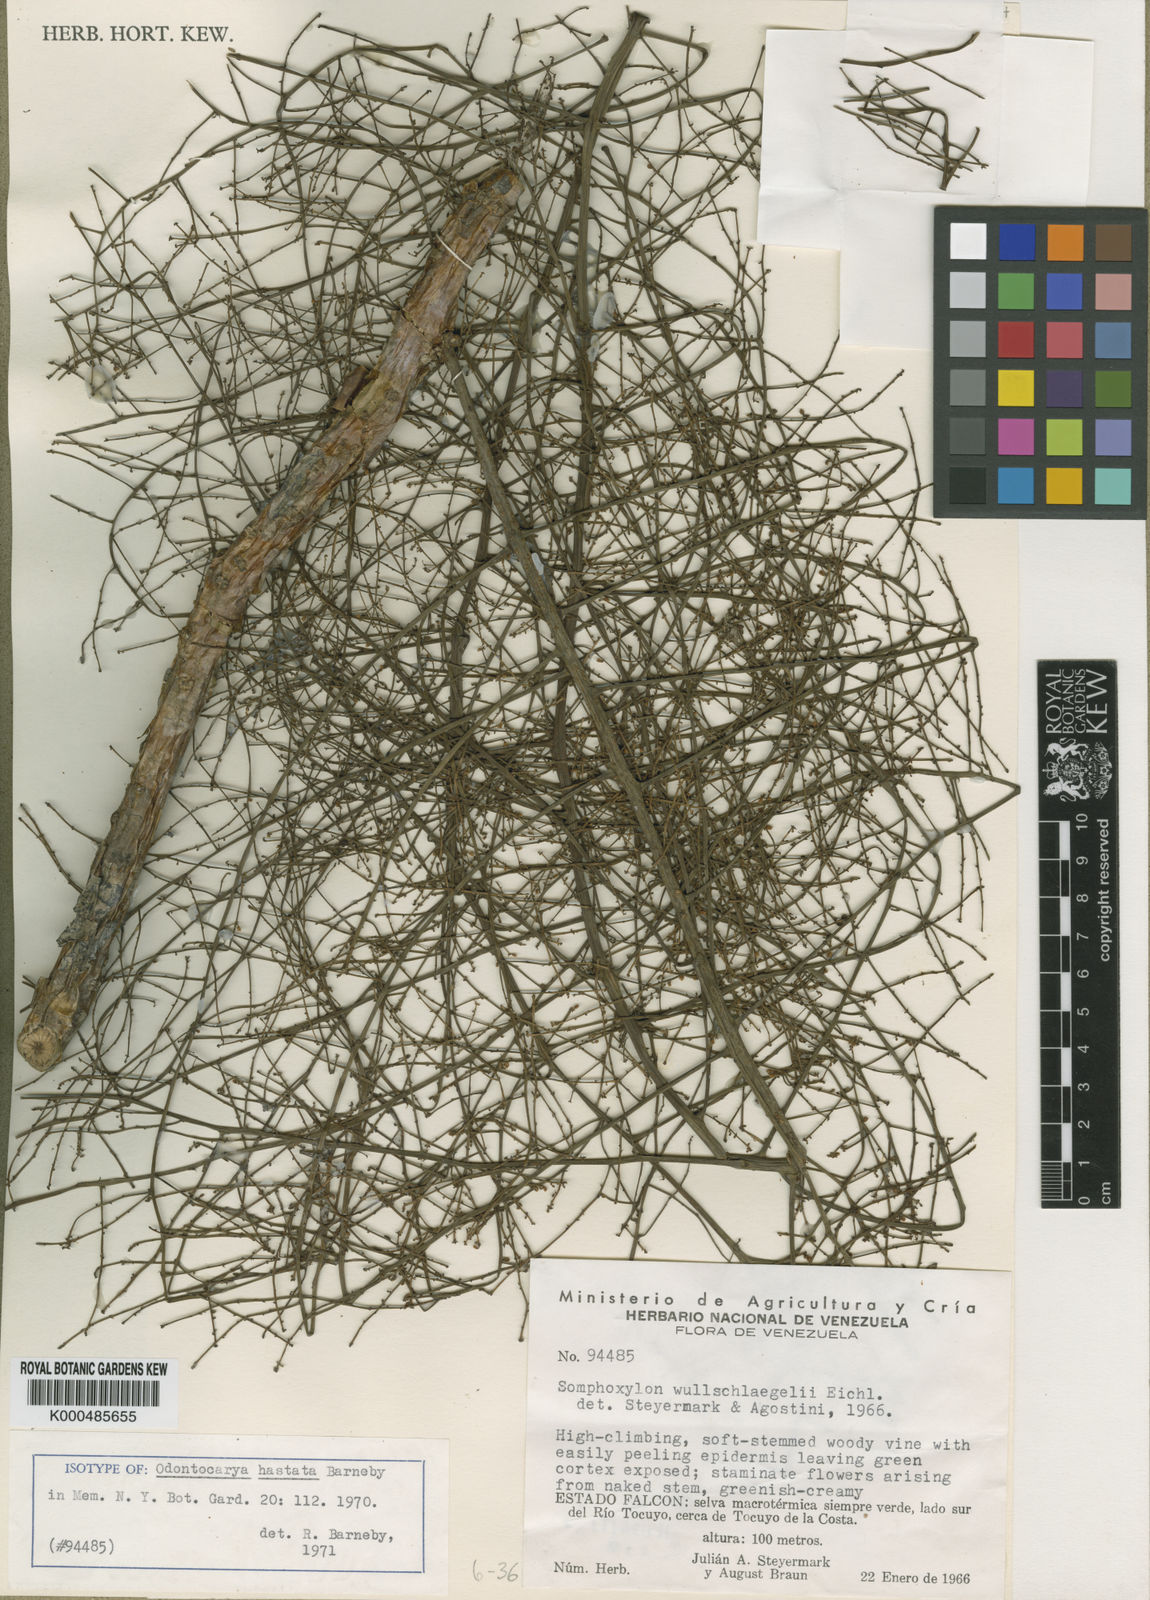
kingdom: Plantae
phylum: Tracheophyta
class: Magnoliopsida
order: Ranunculales
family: Menispermaceae
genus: Odontocarya
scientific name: Odontocarya hastata
